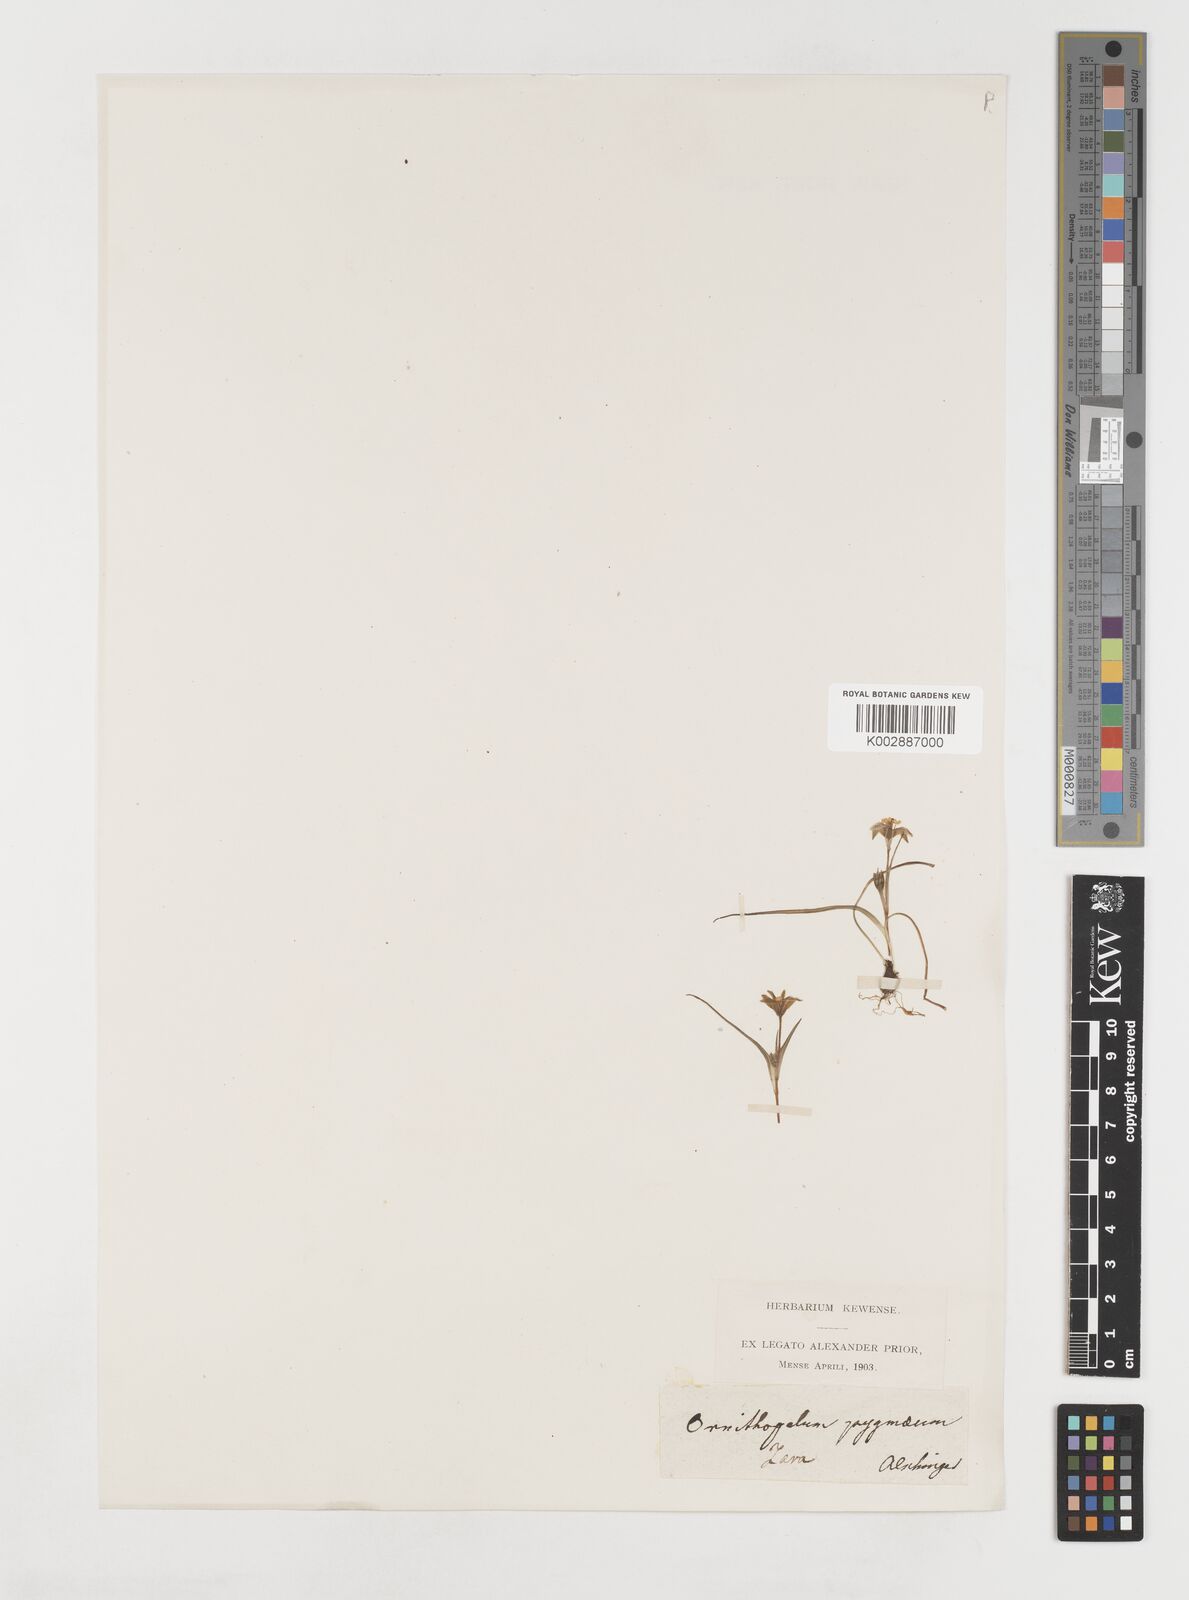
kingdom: Plantae
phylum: Tracheophyta
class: Liliopsida
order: Liliales
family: Liliaceae
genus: Gagea
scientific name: Gagea bohemica
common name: Early star-of-bethlehem
